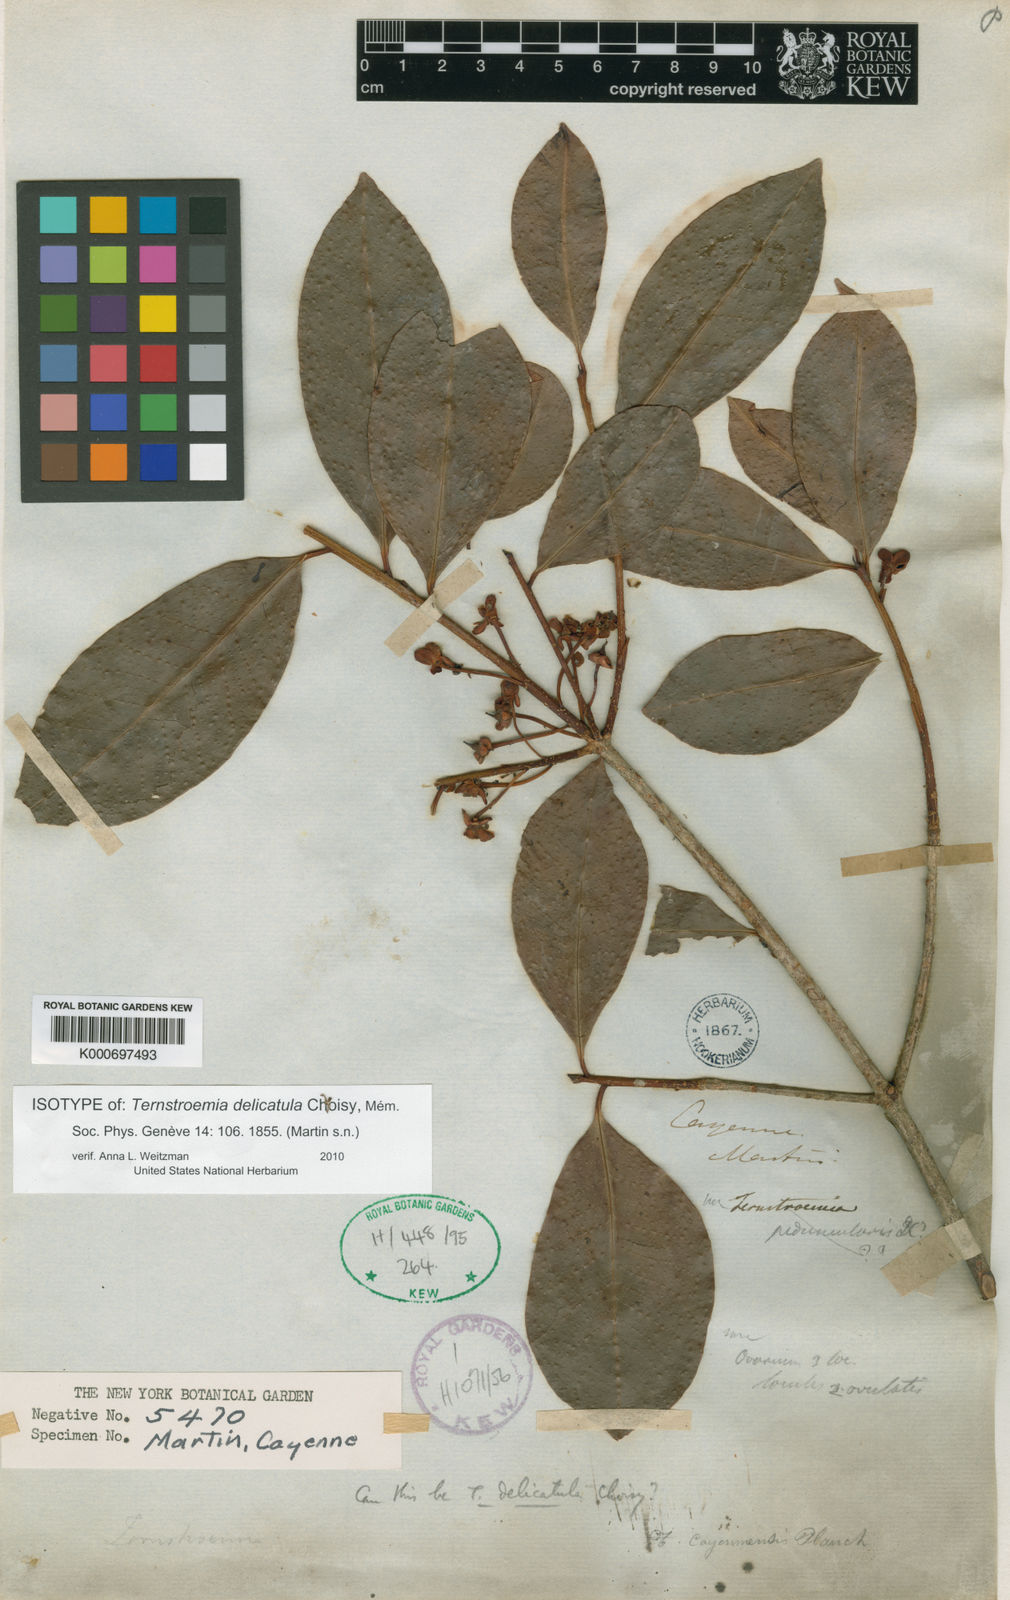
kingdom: Plantae
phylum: Tracheophyta
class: Magnoliopsida
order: Ericales
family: Pentaphylacaceae
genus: Ternstroemia
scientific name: Ternstroemia delicatula
